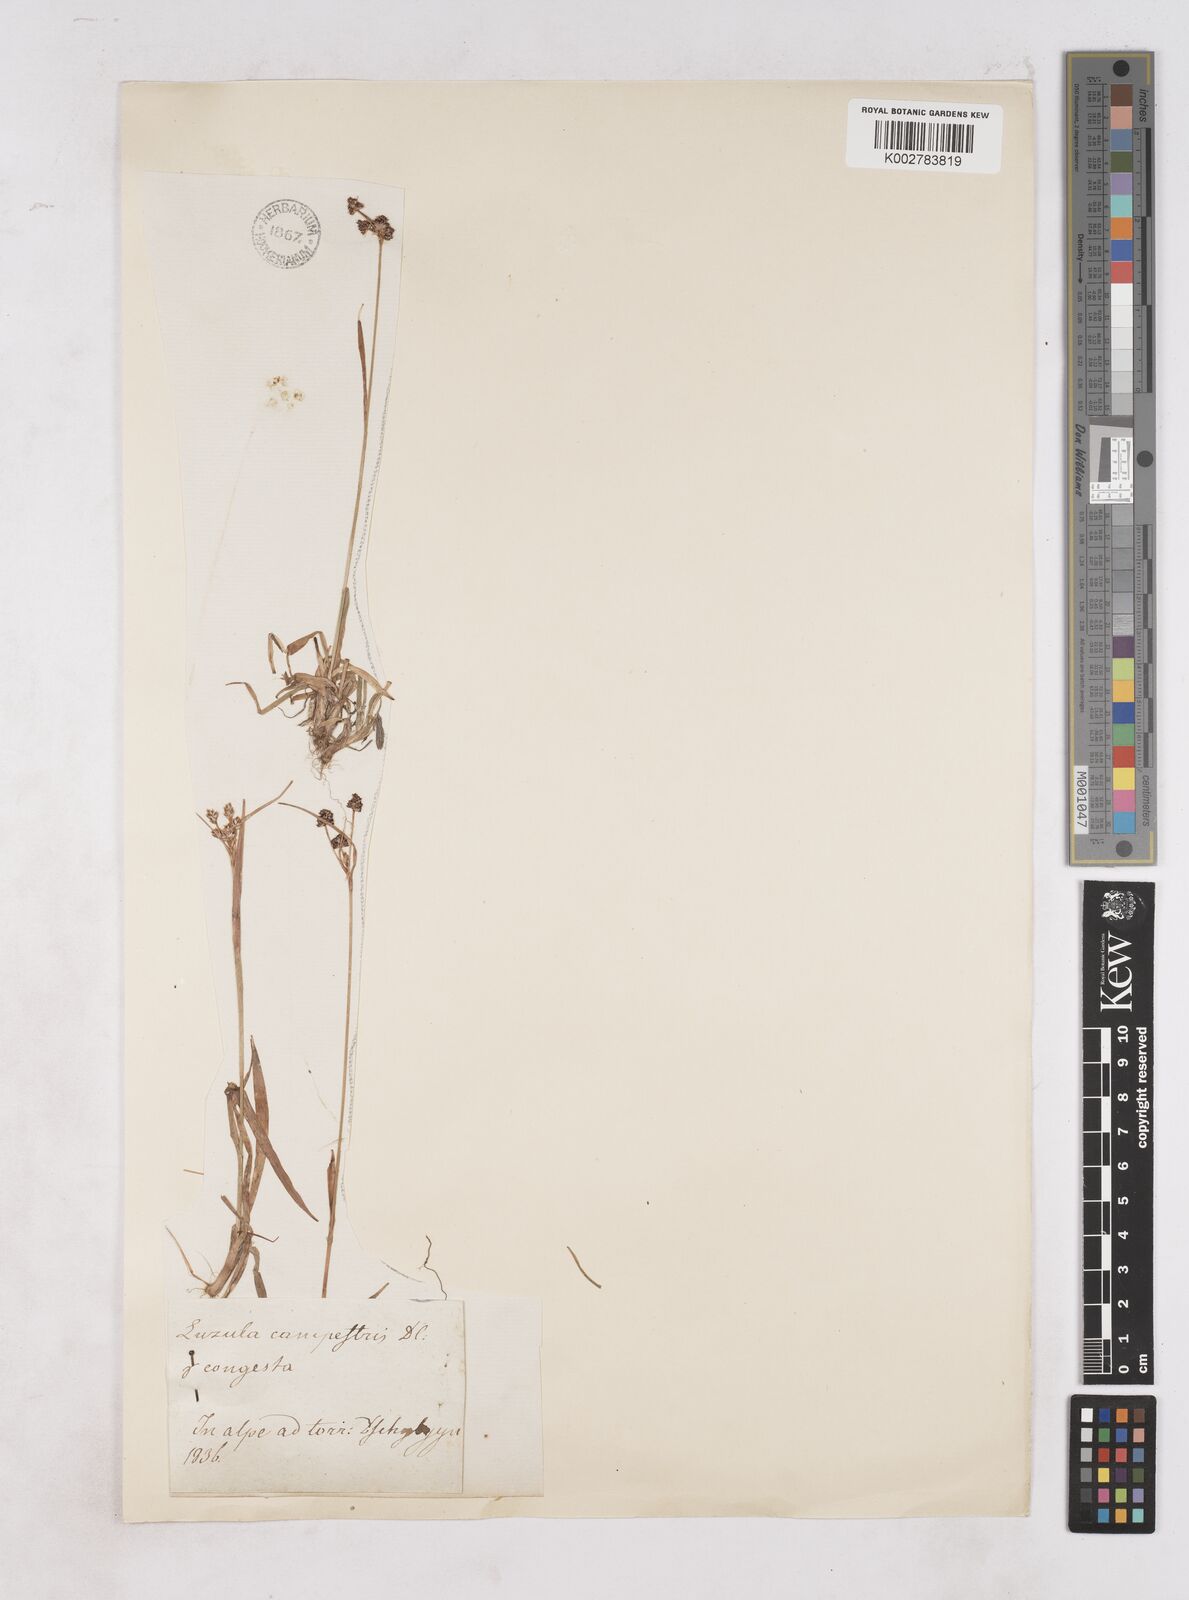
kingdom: Plantae
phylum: Tracheophyta
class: Liliopsida
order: Poales
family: Juncaceae
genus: Luzula
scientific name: Luzula pallescens
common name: Fen wood-rush
